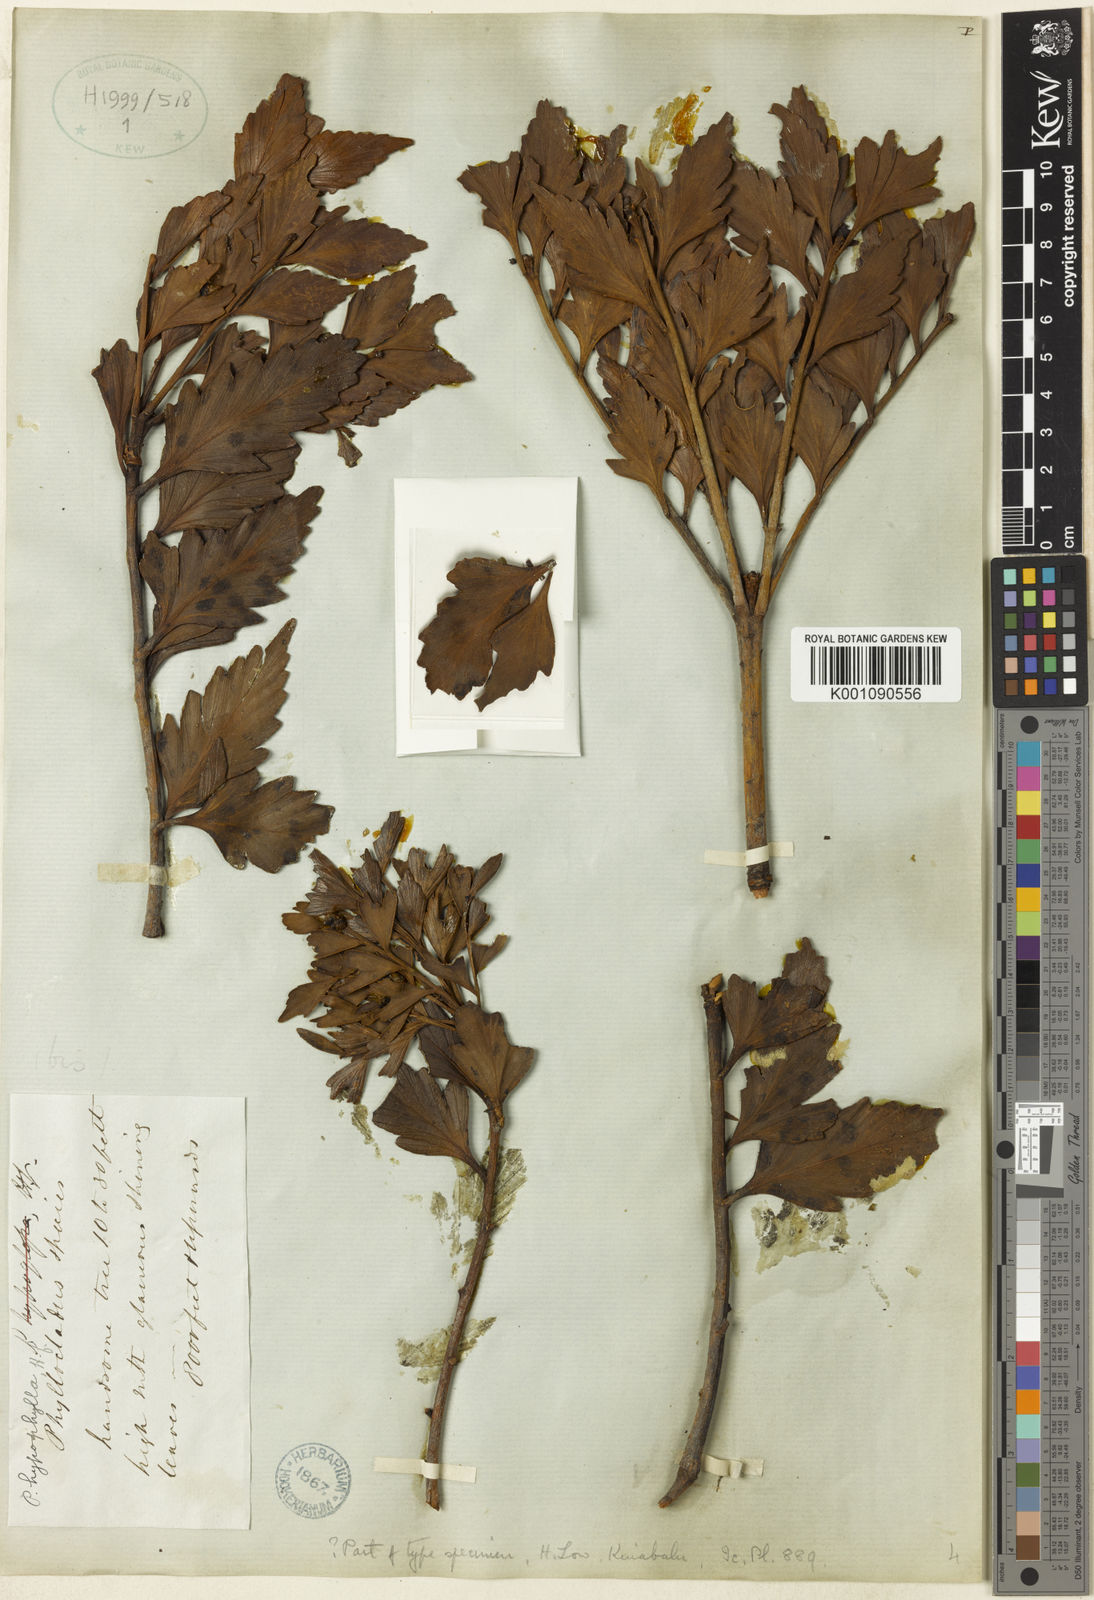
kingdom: Plantae
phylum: Tracheophyta
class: Pinopsida
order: Pinales
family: Phyllocladaceae
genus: Phyllocladus
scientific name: Phyllocladus hypophyllus
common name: Celery pine
